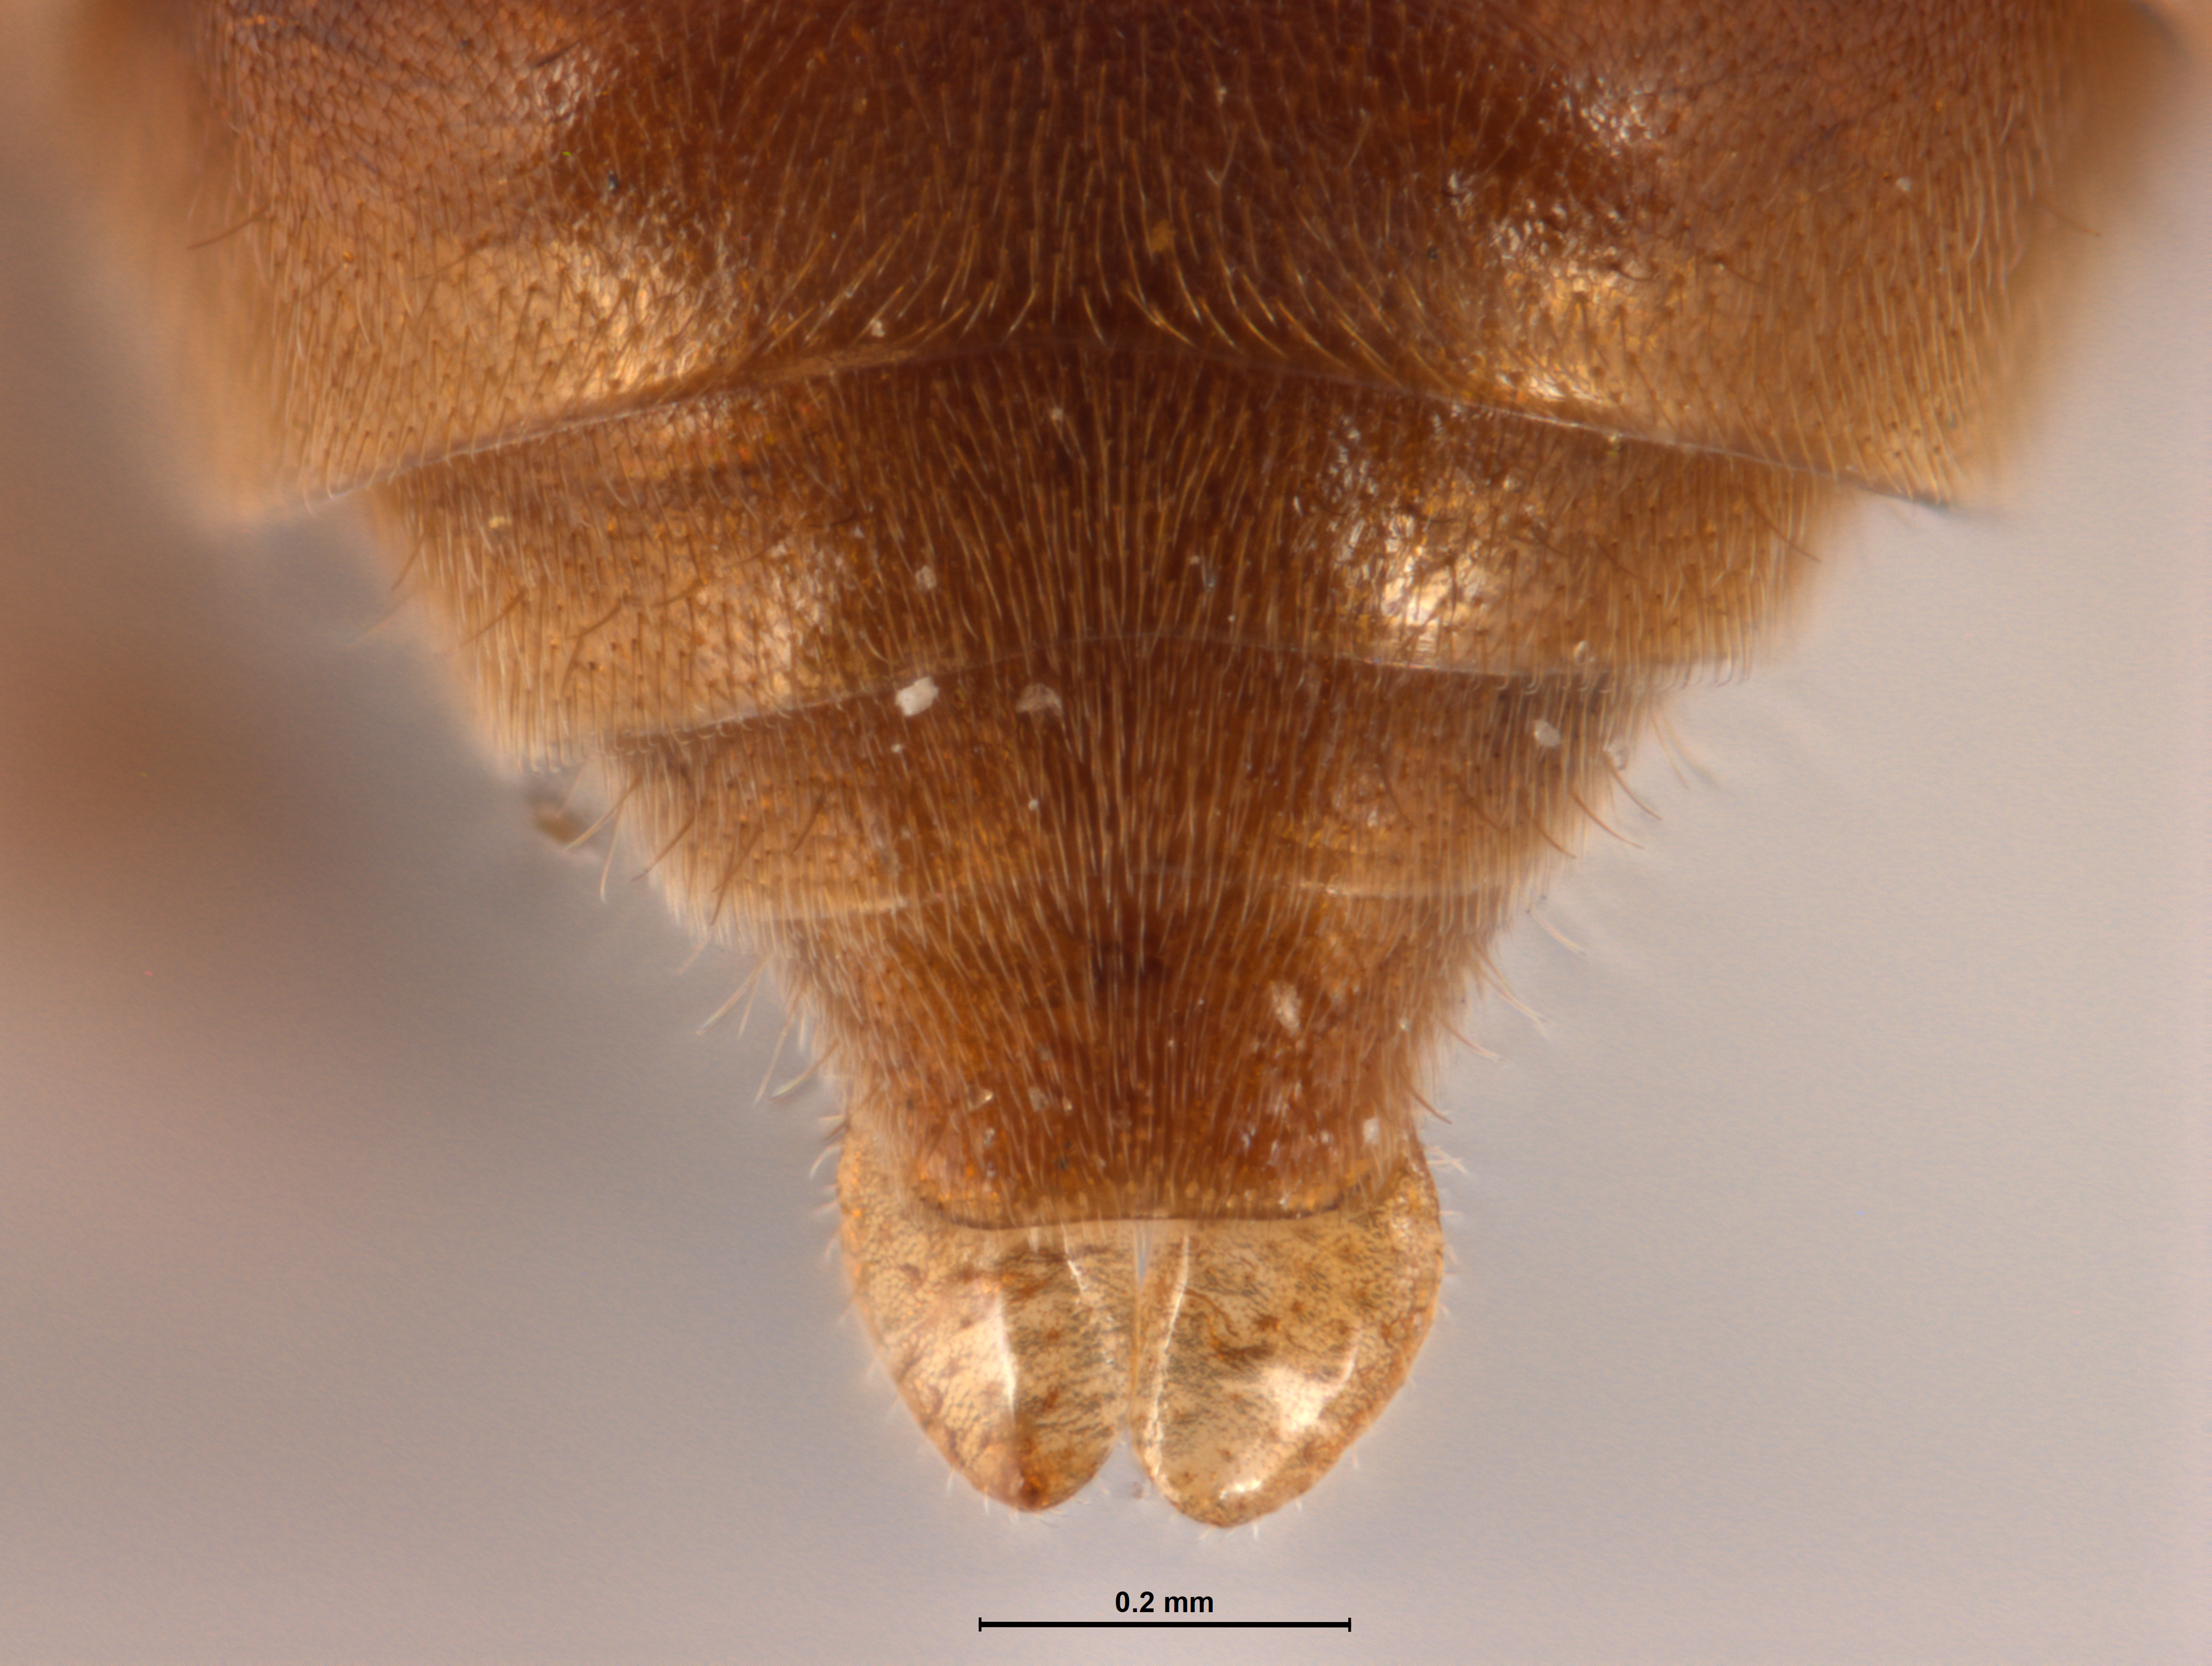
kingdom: Animalia
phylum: Arthropoda
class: Insecta
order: Hymenoptera
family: Crabronidae
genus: Pison
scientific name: Pison peletieri
